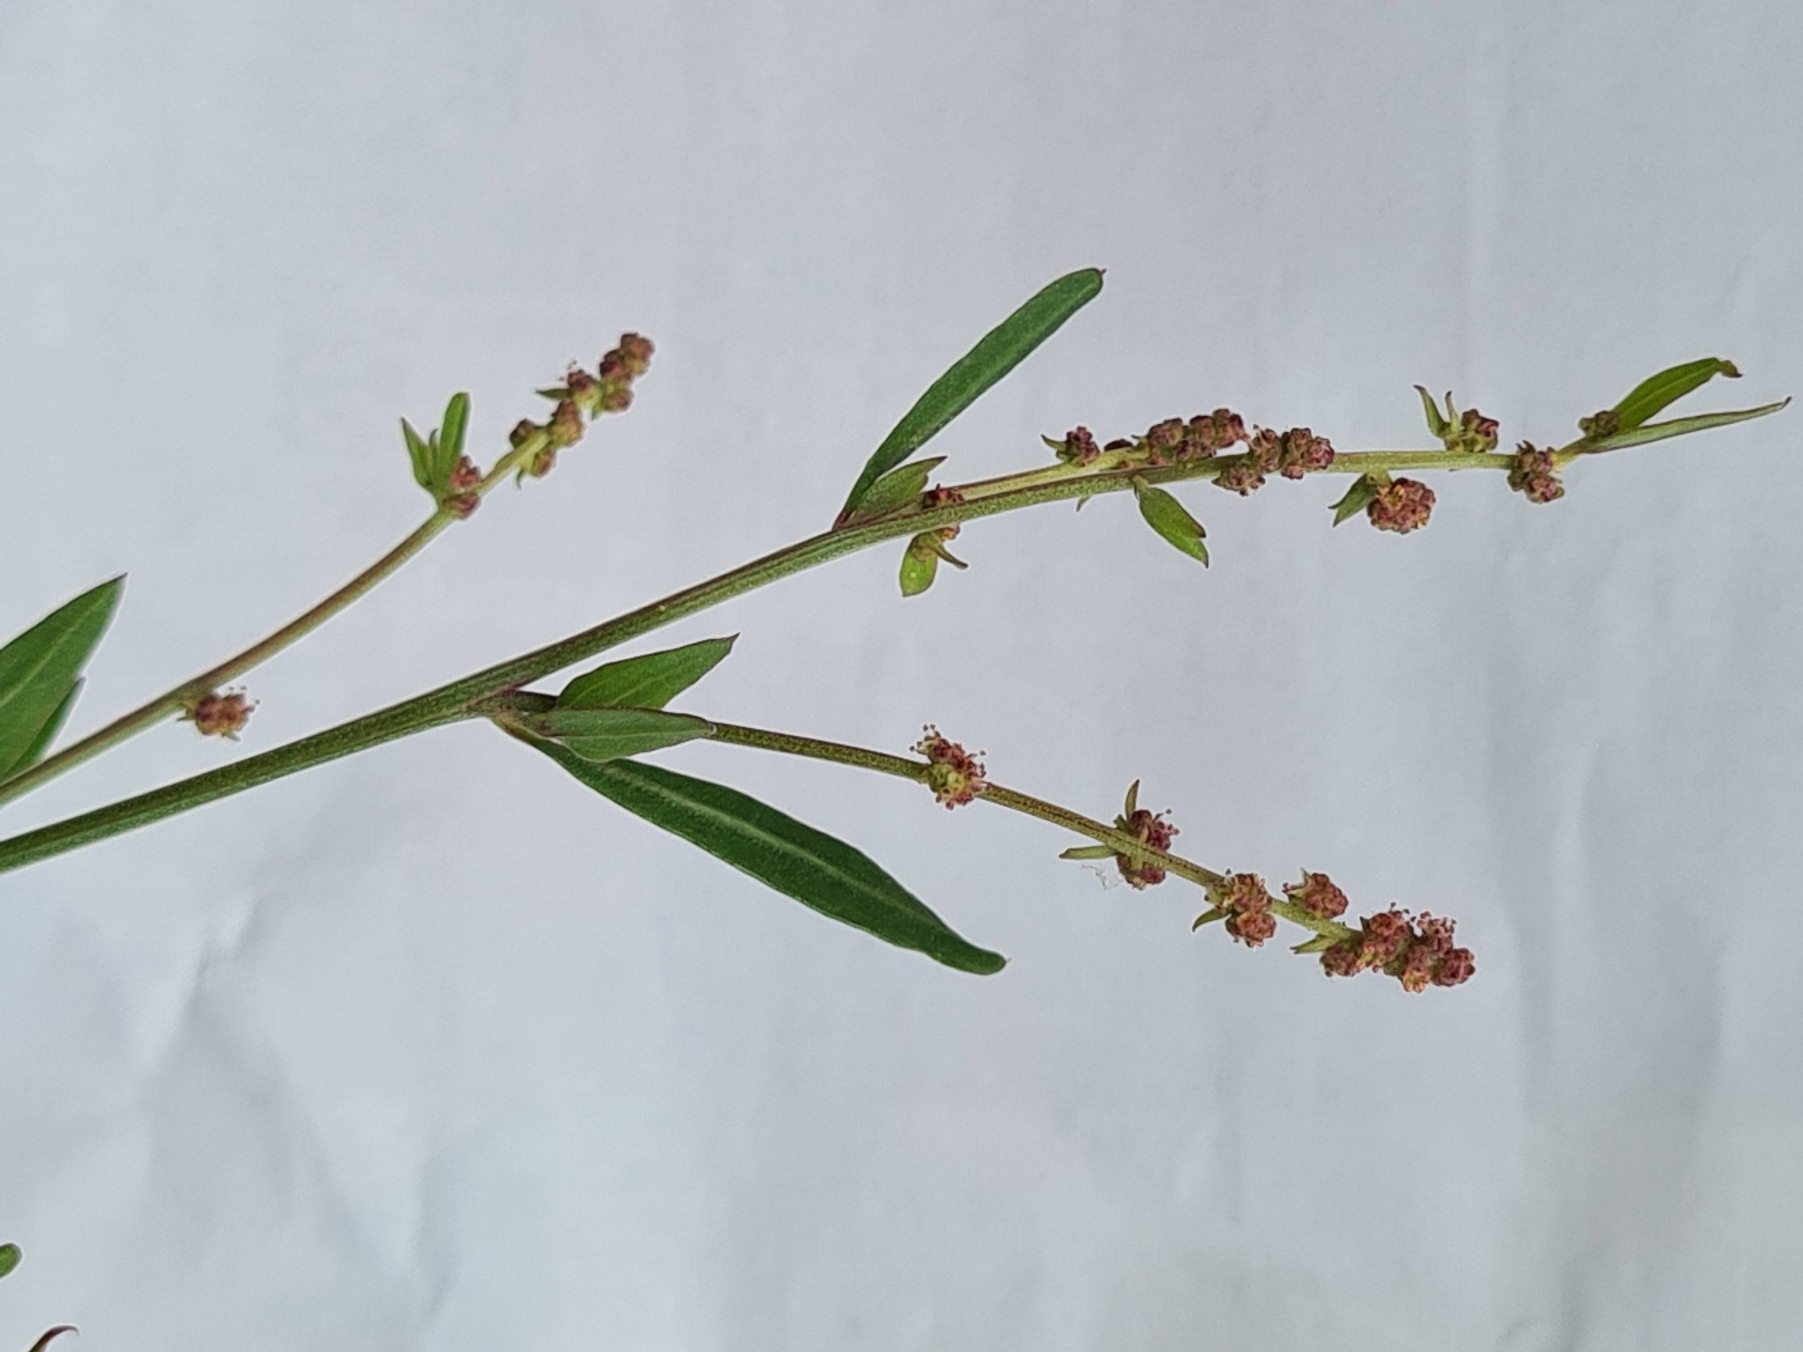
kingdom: Plantae
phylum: Tracheophyta
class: Magnoliopsida
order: Caryophyllales
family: Amaranthaceae
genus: Atriplex
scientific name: Atriplex patula
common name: Svine-mælde
